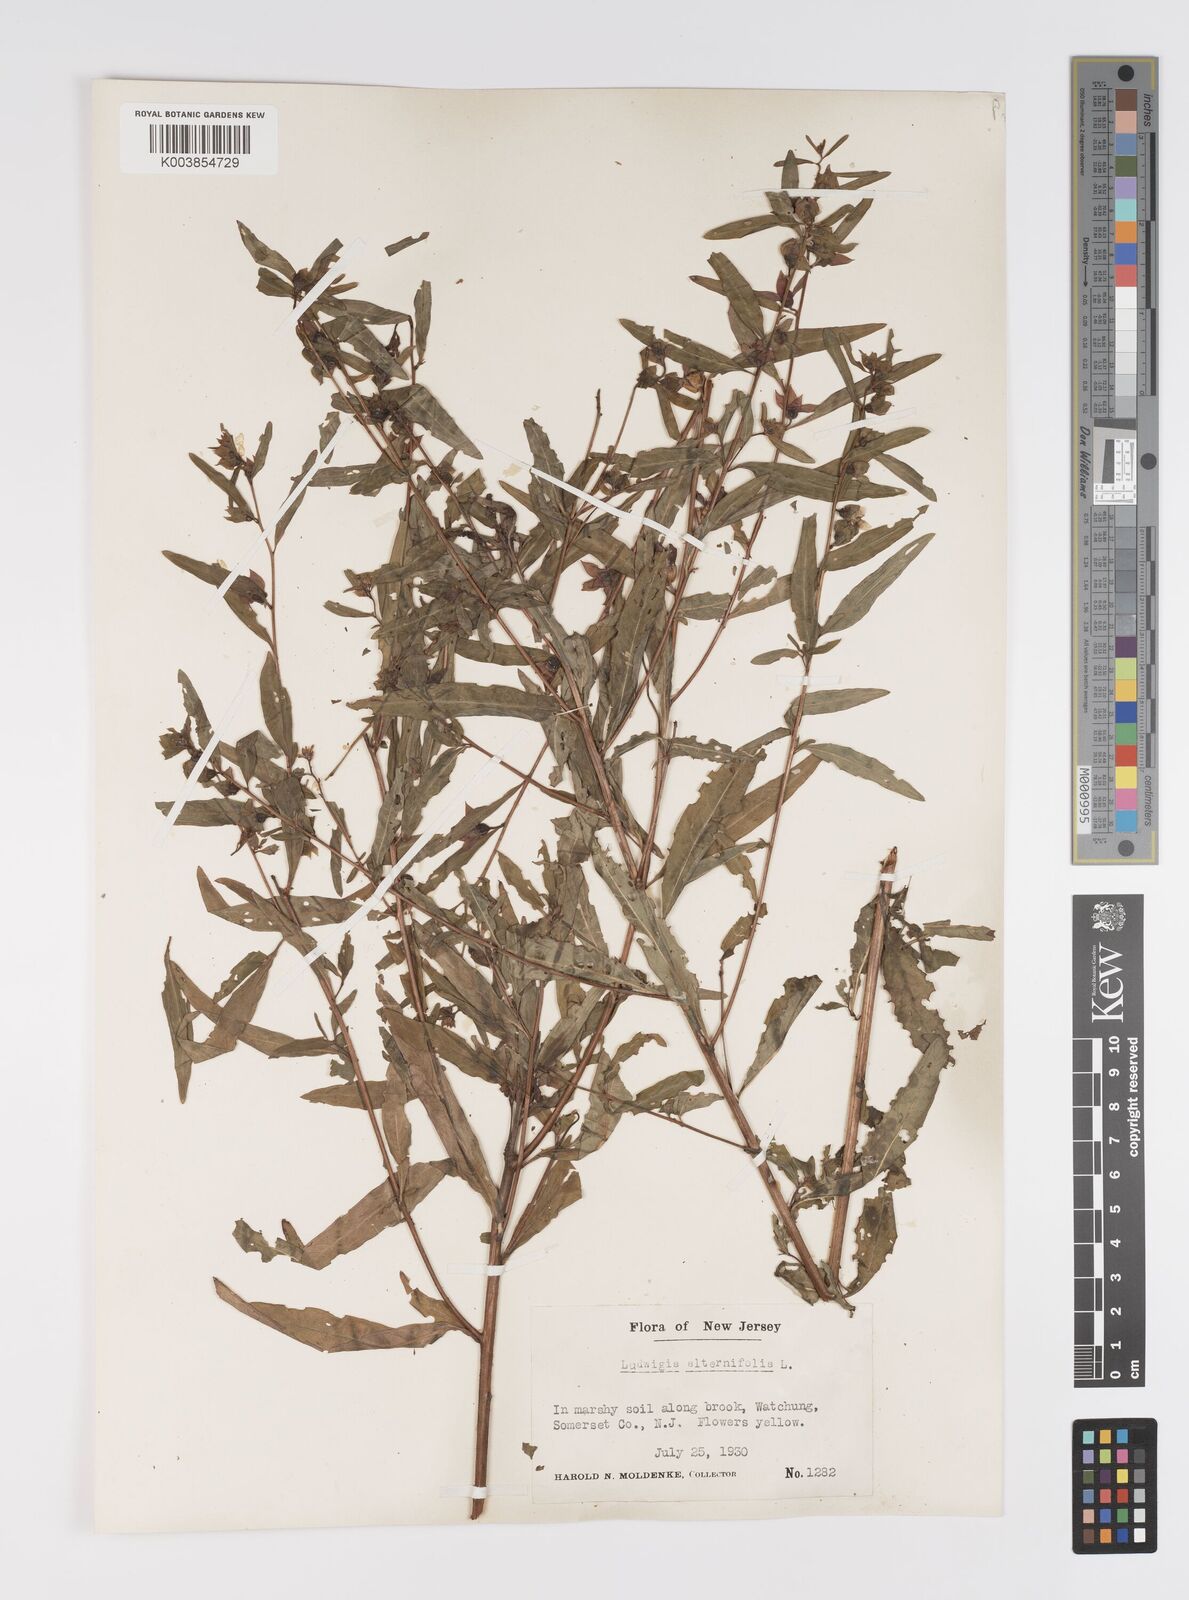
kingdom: Plantae
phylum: Tracheophyta
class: Magnoliopsida
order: Myrtales
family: Onagraceae
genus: Ludwigia
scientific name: Ludwigia alternifolia
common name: Rattlebox
